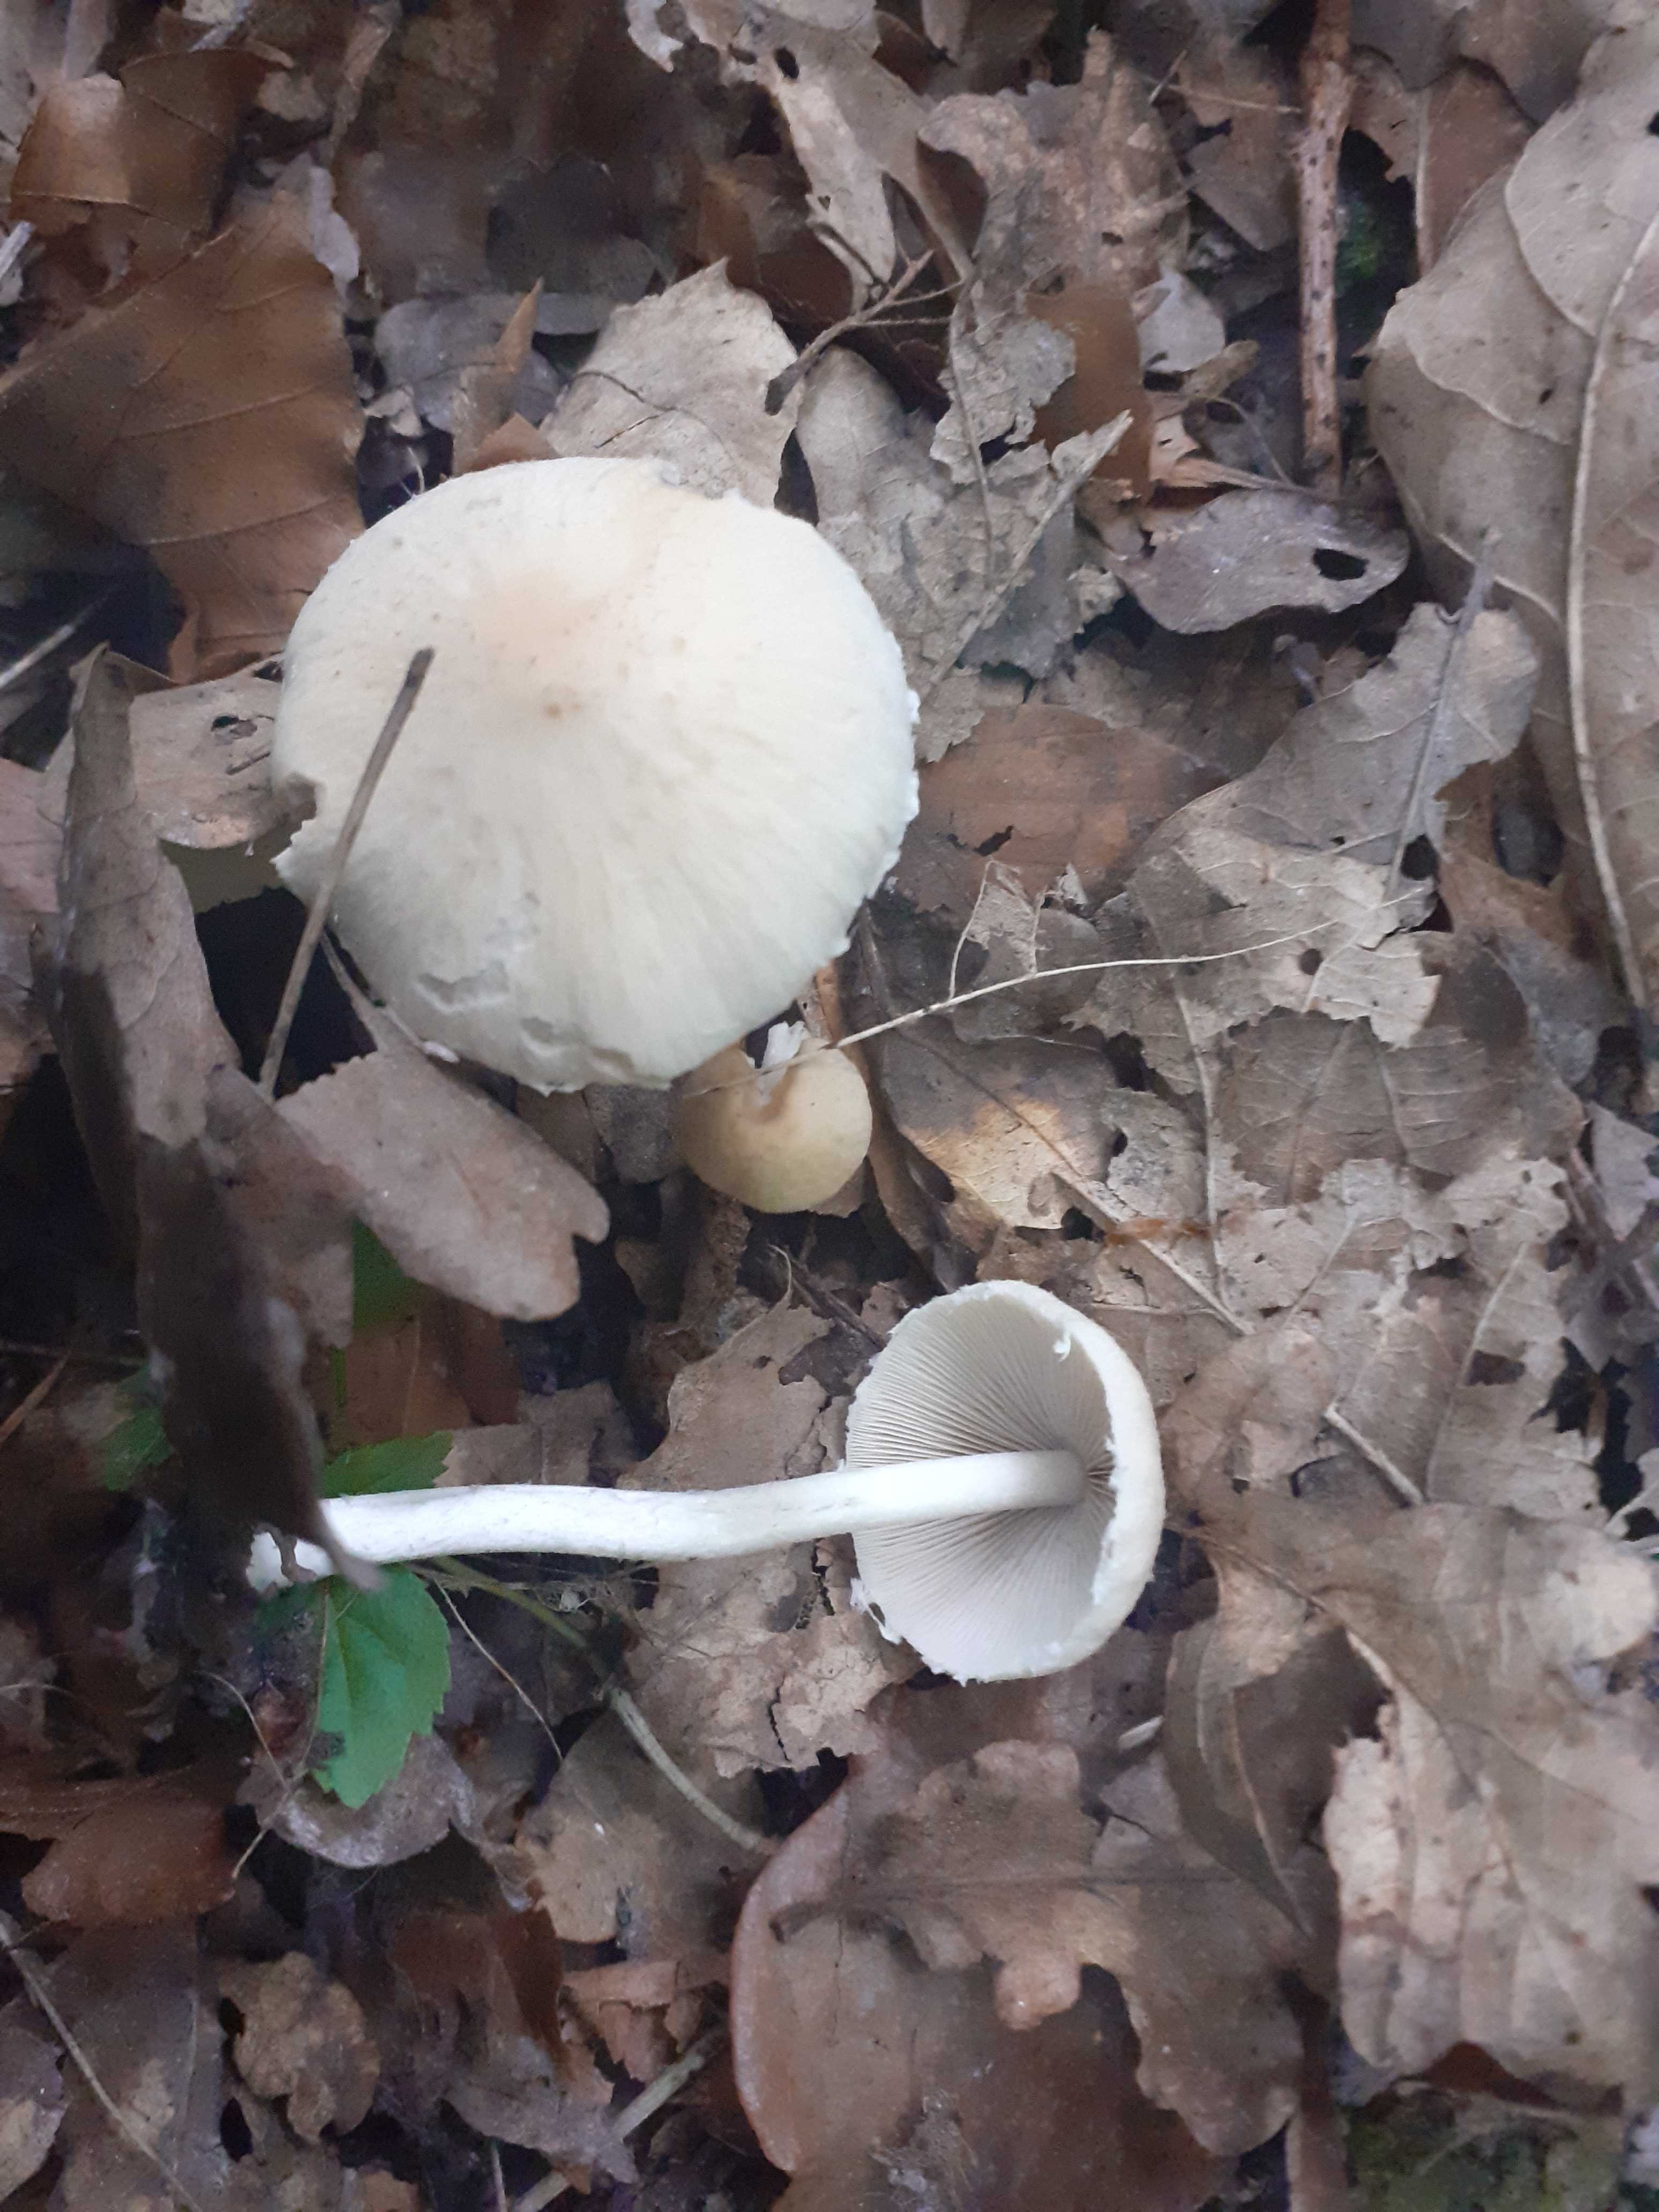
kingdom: Fungi
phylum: Basidiomycota
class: Agaricomycetes
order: Agaricales
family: Psathyrellaceae
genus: Candolleomyces
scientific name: Candolleomyces candolleanus
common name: Candolles mørkhat
